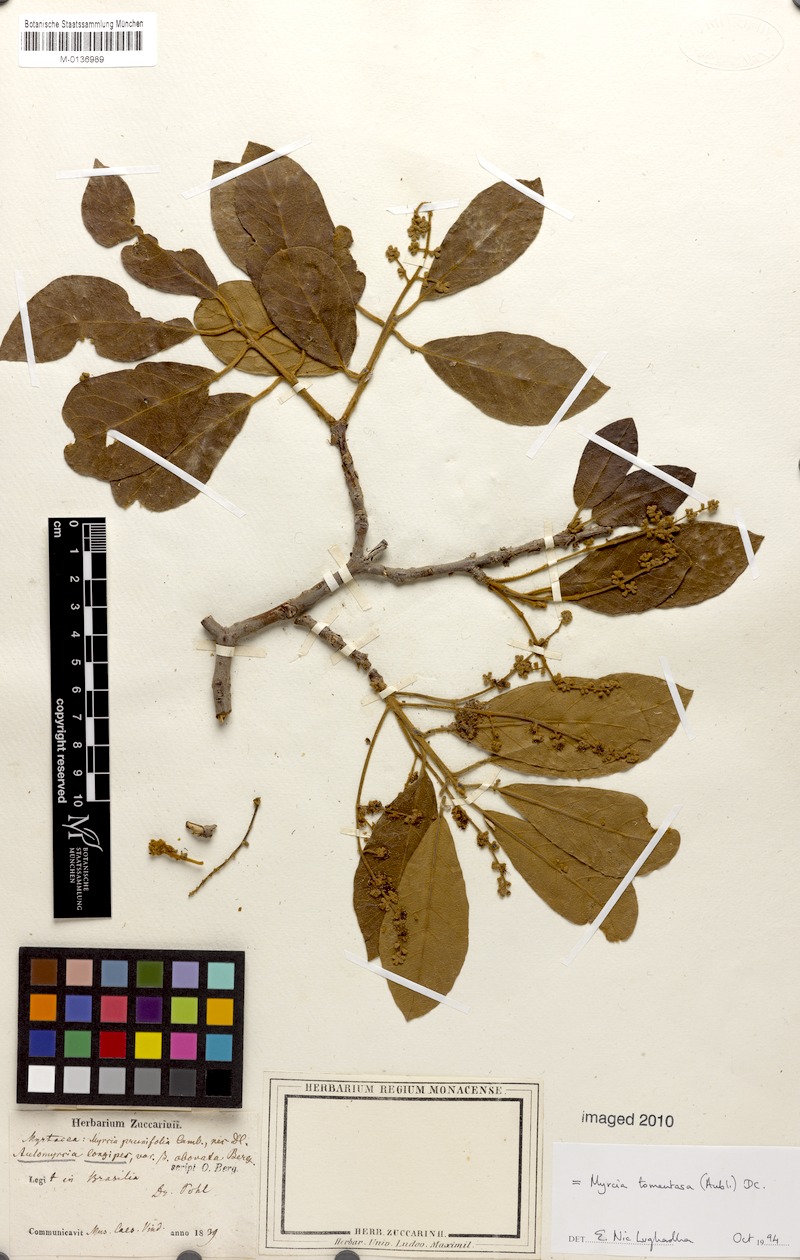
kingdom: Plantae
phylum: Tracheophyta
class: Magnoliopsida
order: Myrtales
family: Myrtaceae
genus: Myrcia
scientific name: Myrcia tomentosa
